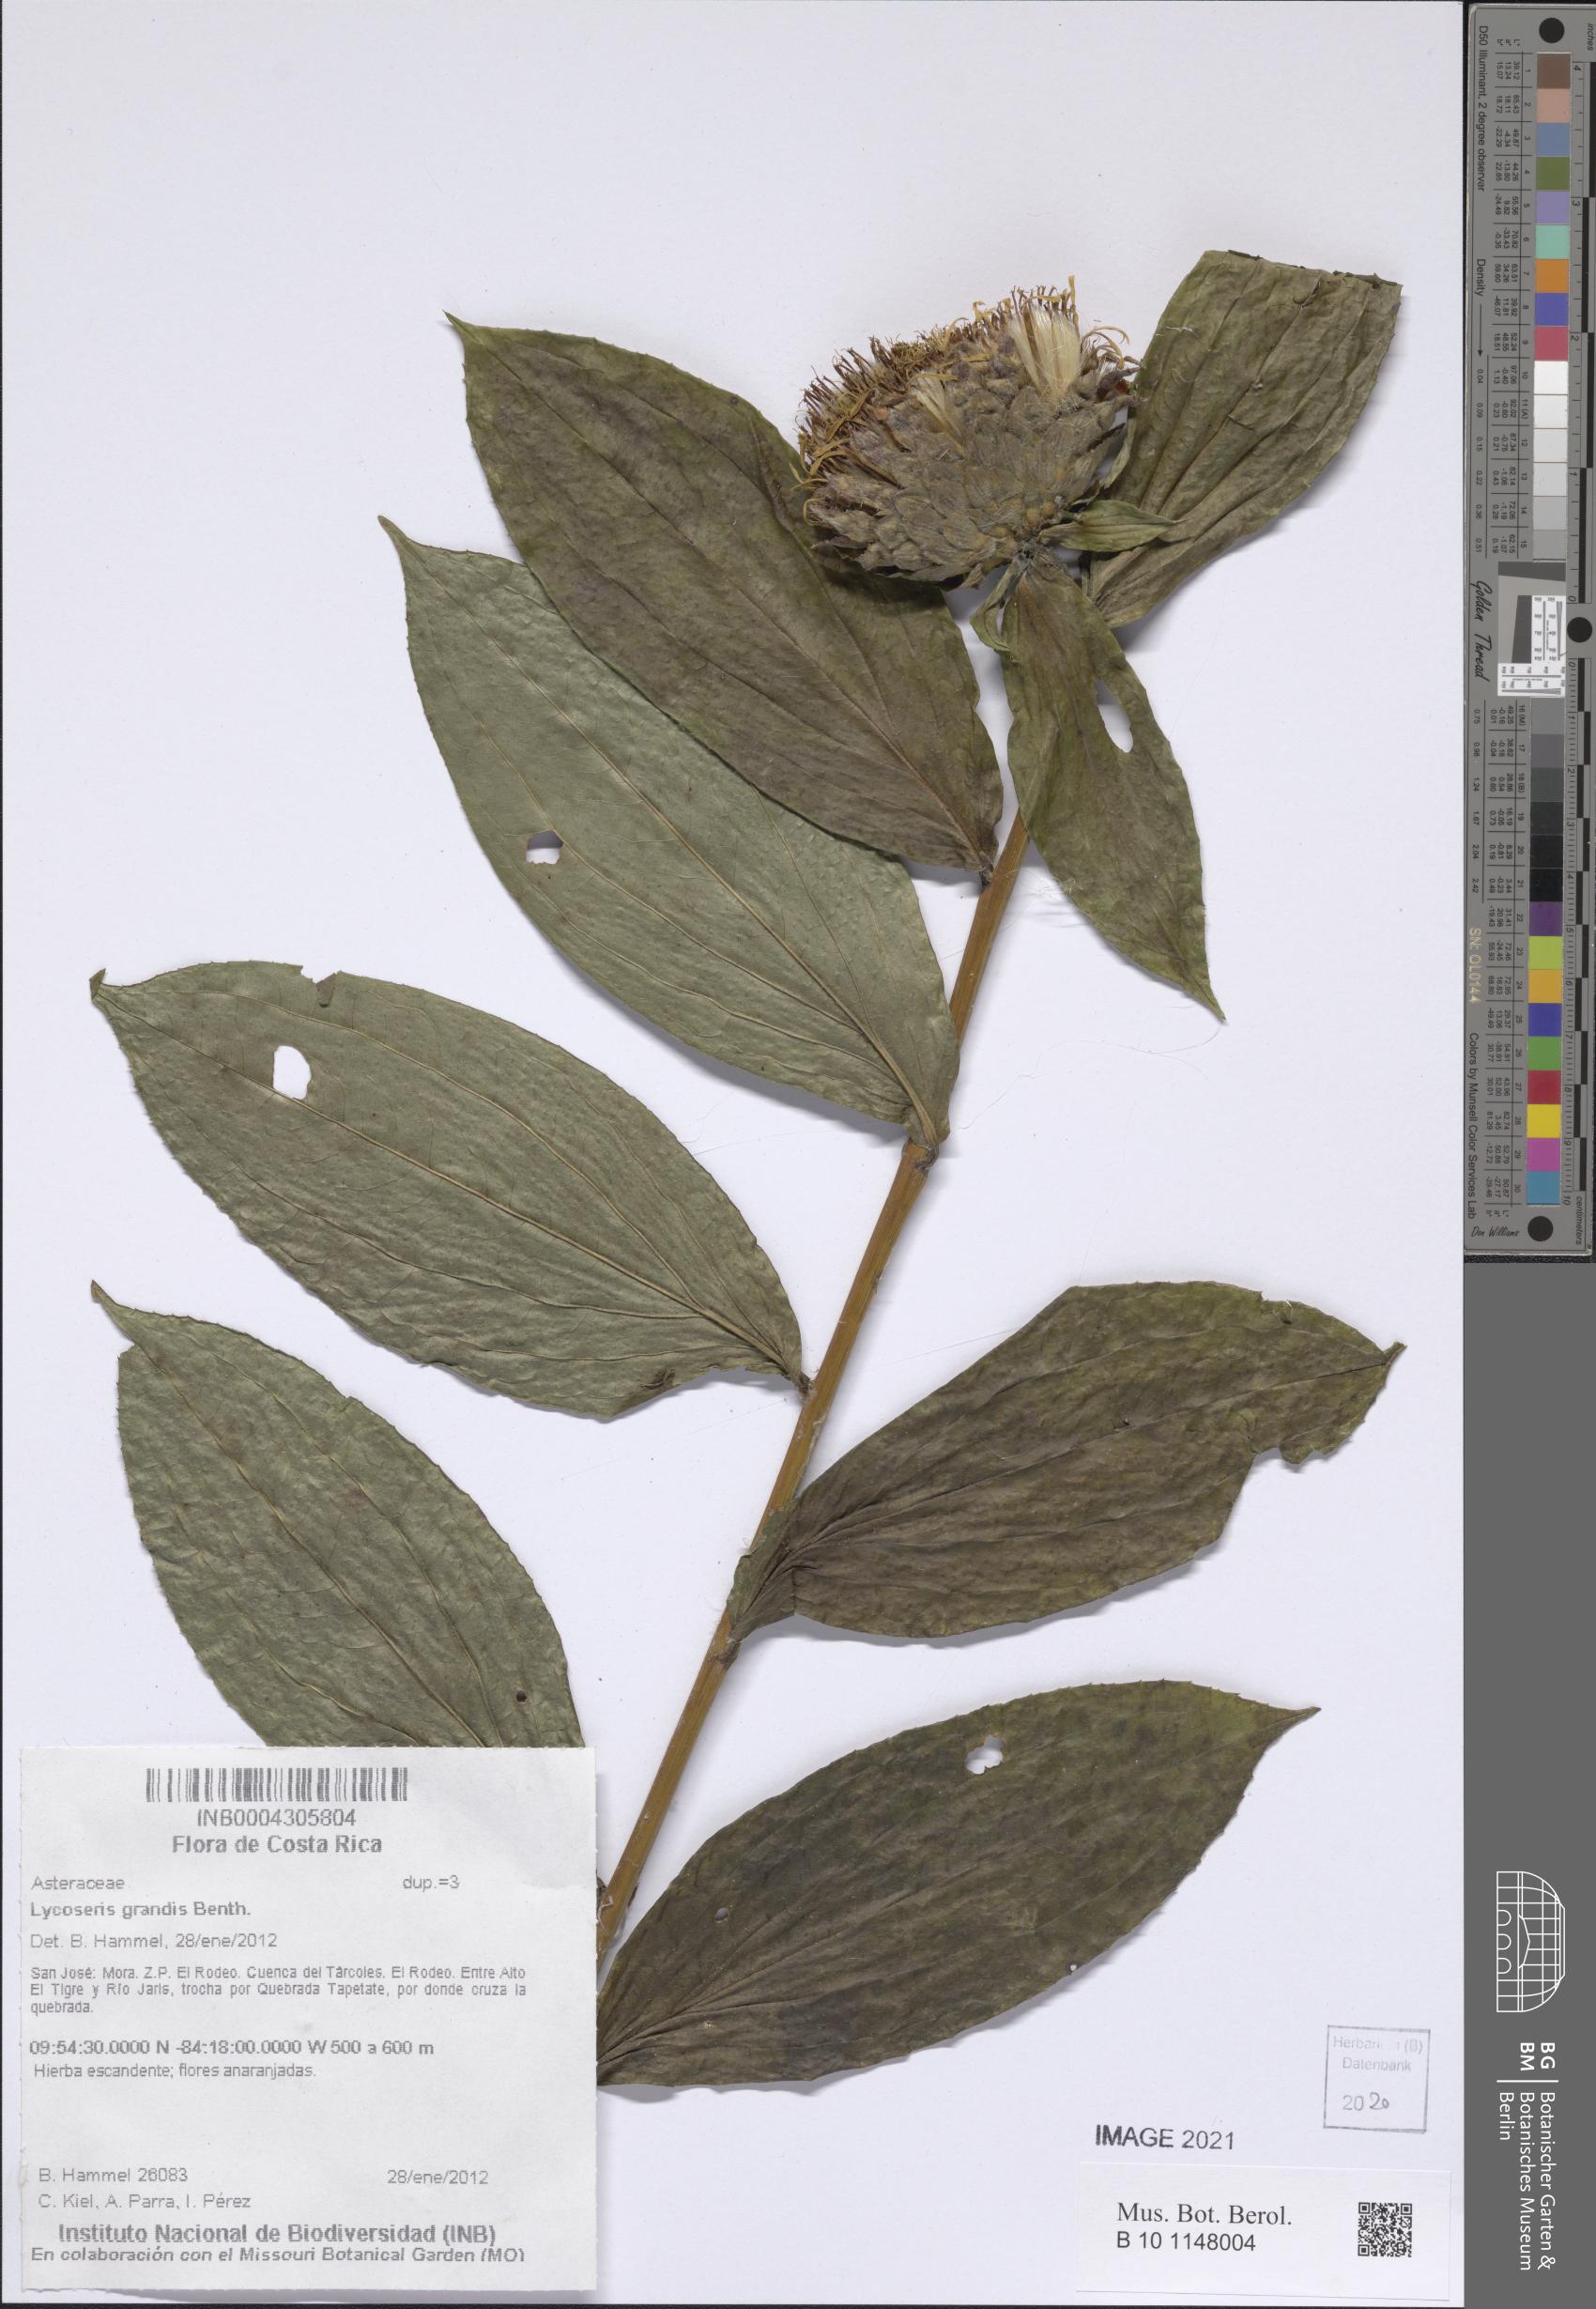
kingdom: Plantae
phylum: Tracheophyta
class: Magnoliopsida
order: Asterales
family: Asteraceae
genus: Lycoseris
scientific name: Lycoseris grandis
